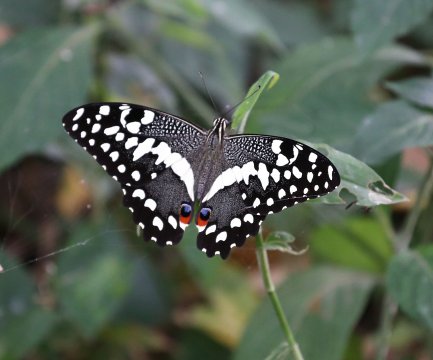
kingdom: Animalia
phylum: Arthropoda
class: Insecta
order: Lepidoptera
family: Papilionidae
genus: Papilio
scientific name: Papilio demodocus
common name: Citrus Swallowtail
